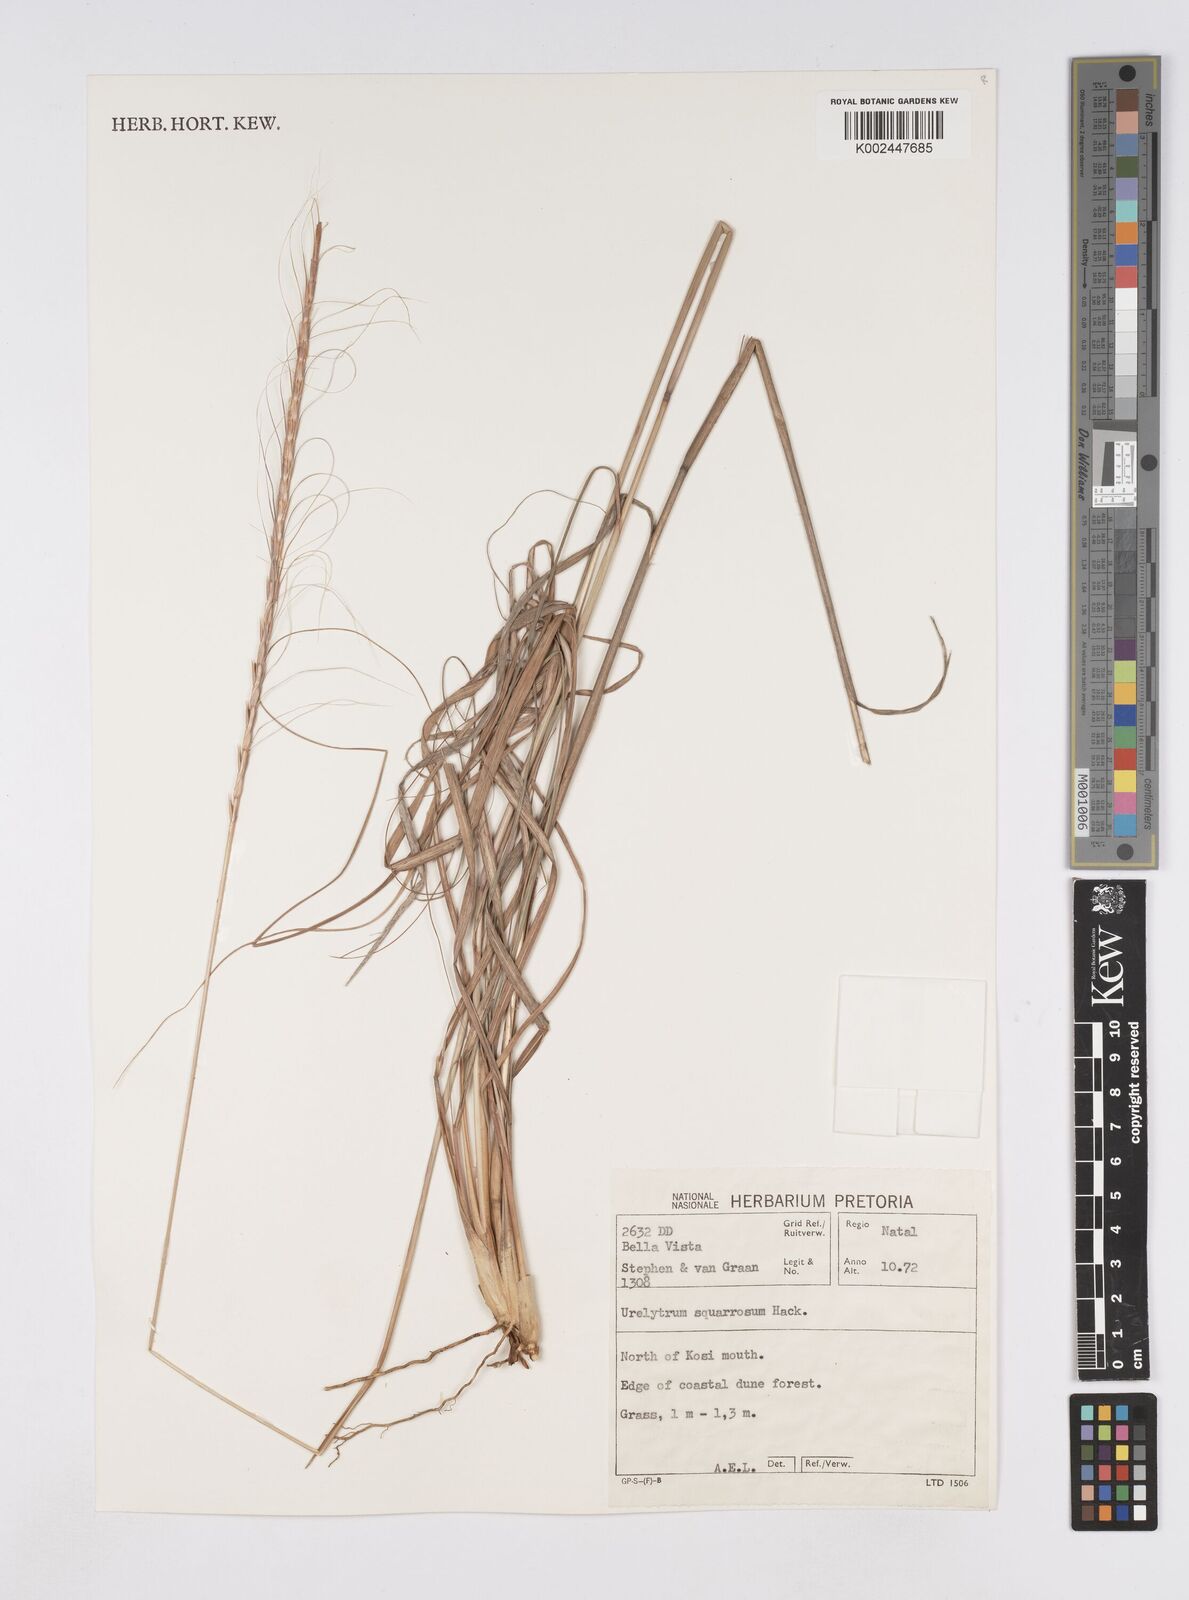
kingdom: Plantae
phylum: Tracheophyta
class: Liliopsida
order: Poales
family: Poaceae
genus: Urelytrum
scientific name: Urelytrum agropyroides
